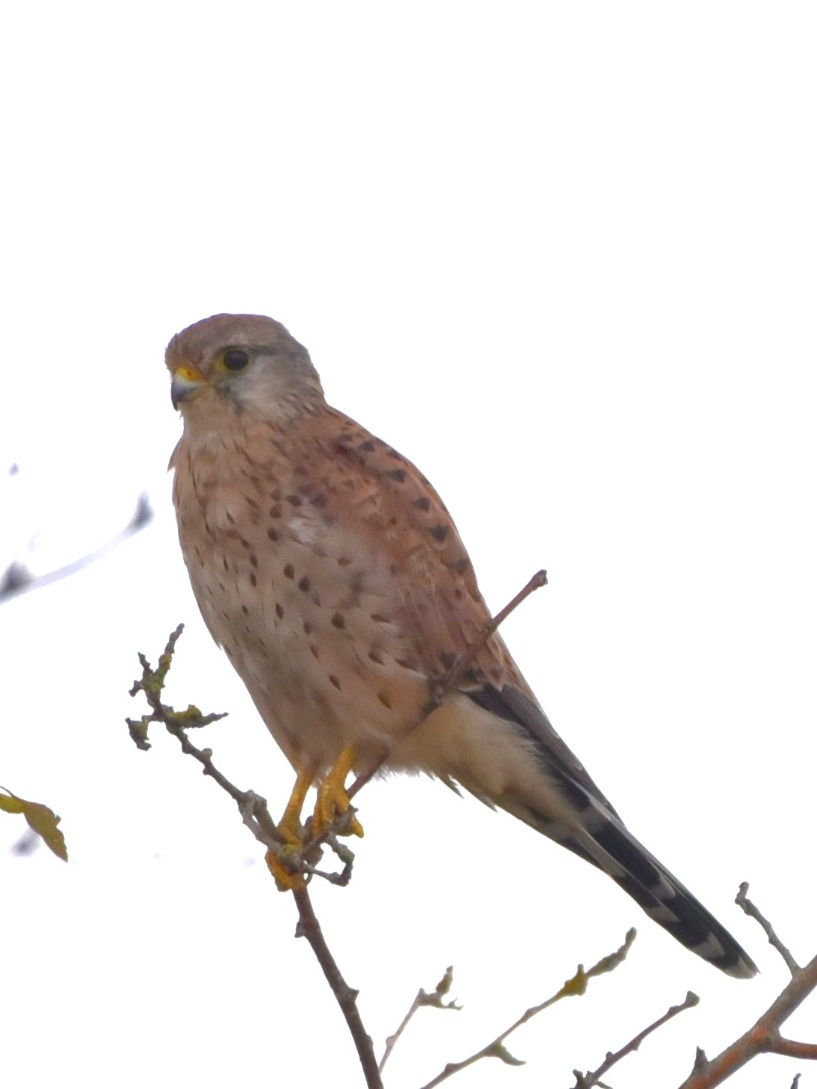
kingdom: Animalia
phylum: Chordata
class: Aves
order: Falconiformes
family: Falconidae
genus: Falco
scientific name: Falco tinnunculus
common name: Tårnfalk
